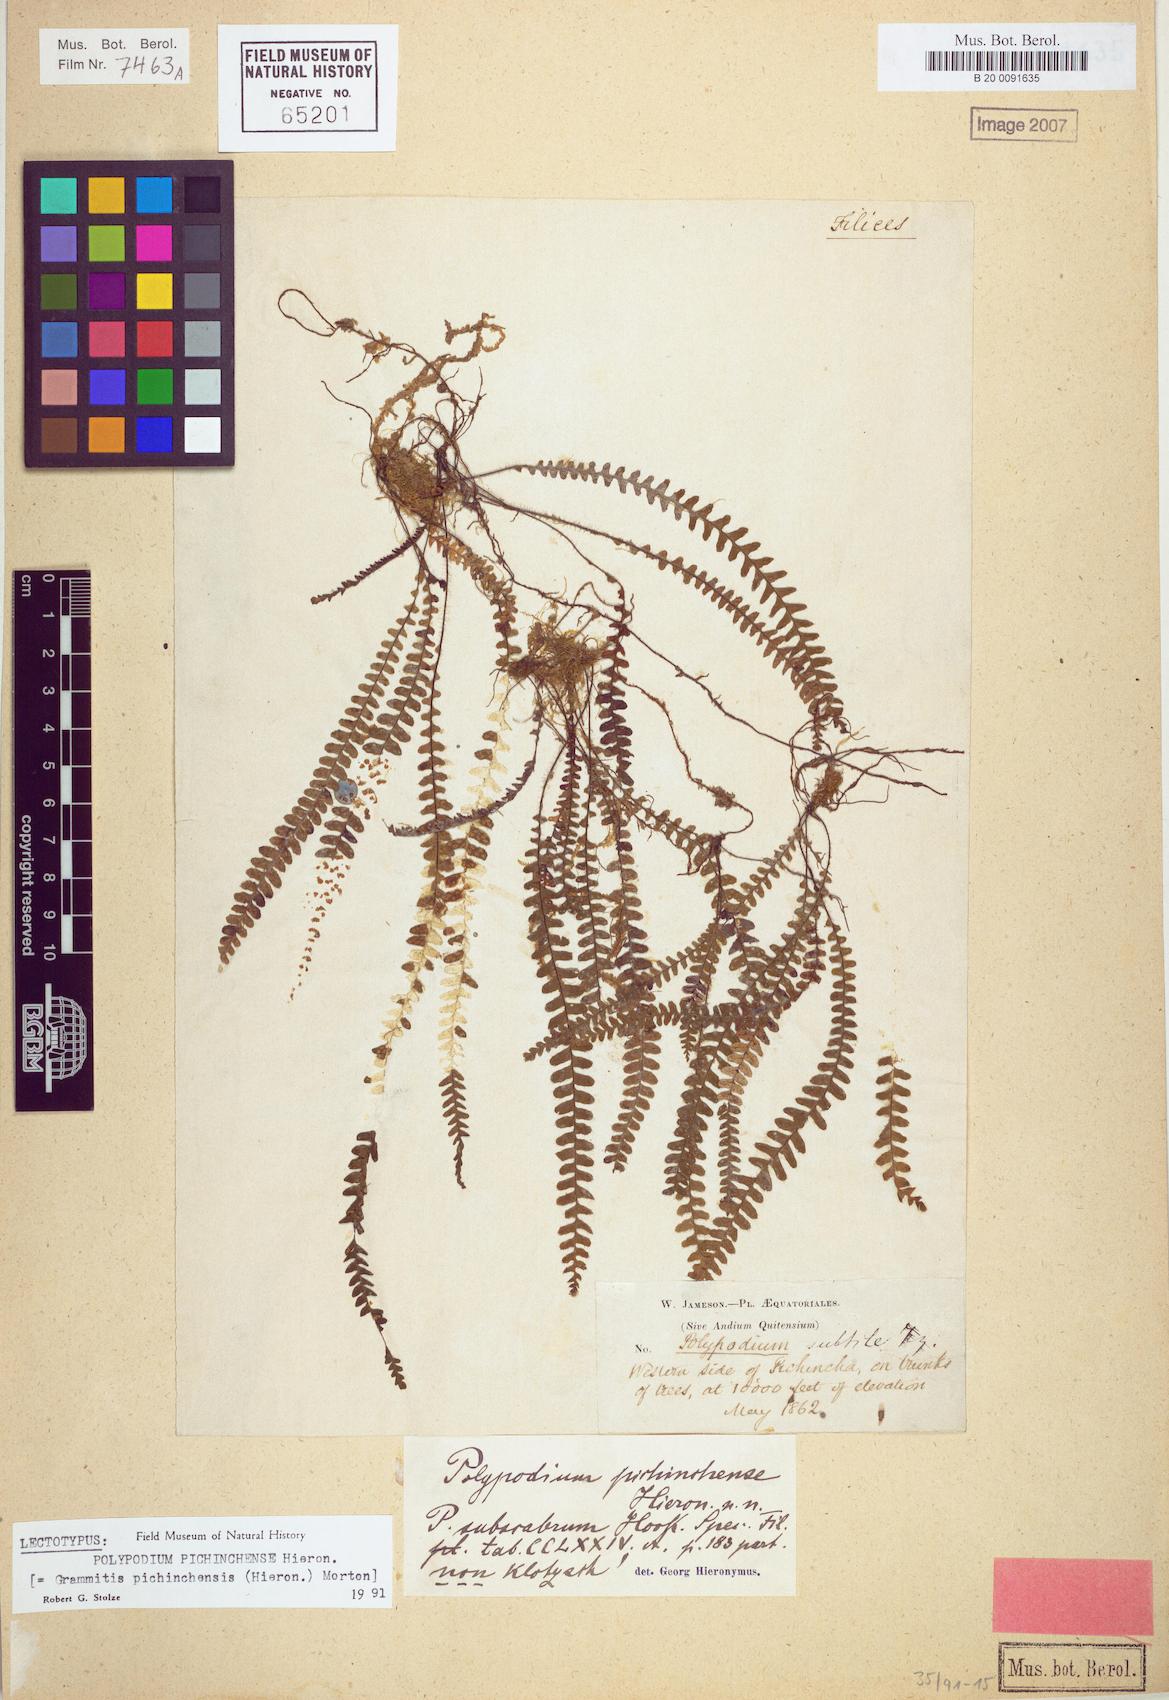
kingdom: Plantae
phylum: Tracheophyta
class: Polypodiopsida
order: Polypodiales
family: Polypodiaceae
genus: Ascogrammitis
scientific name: Ascogrammitis pichinchensis
